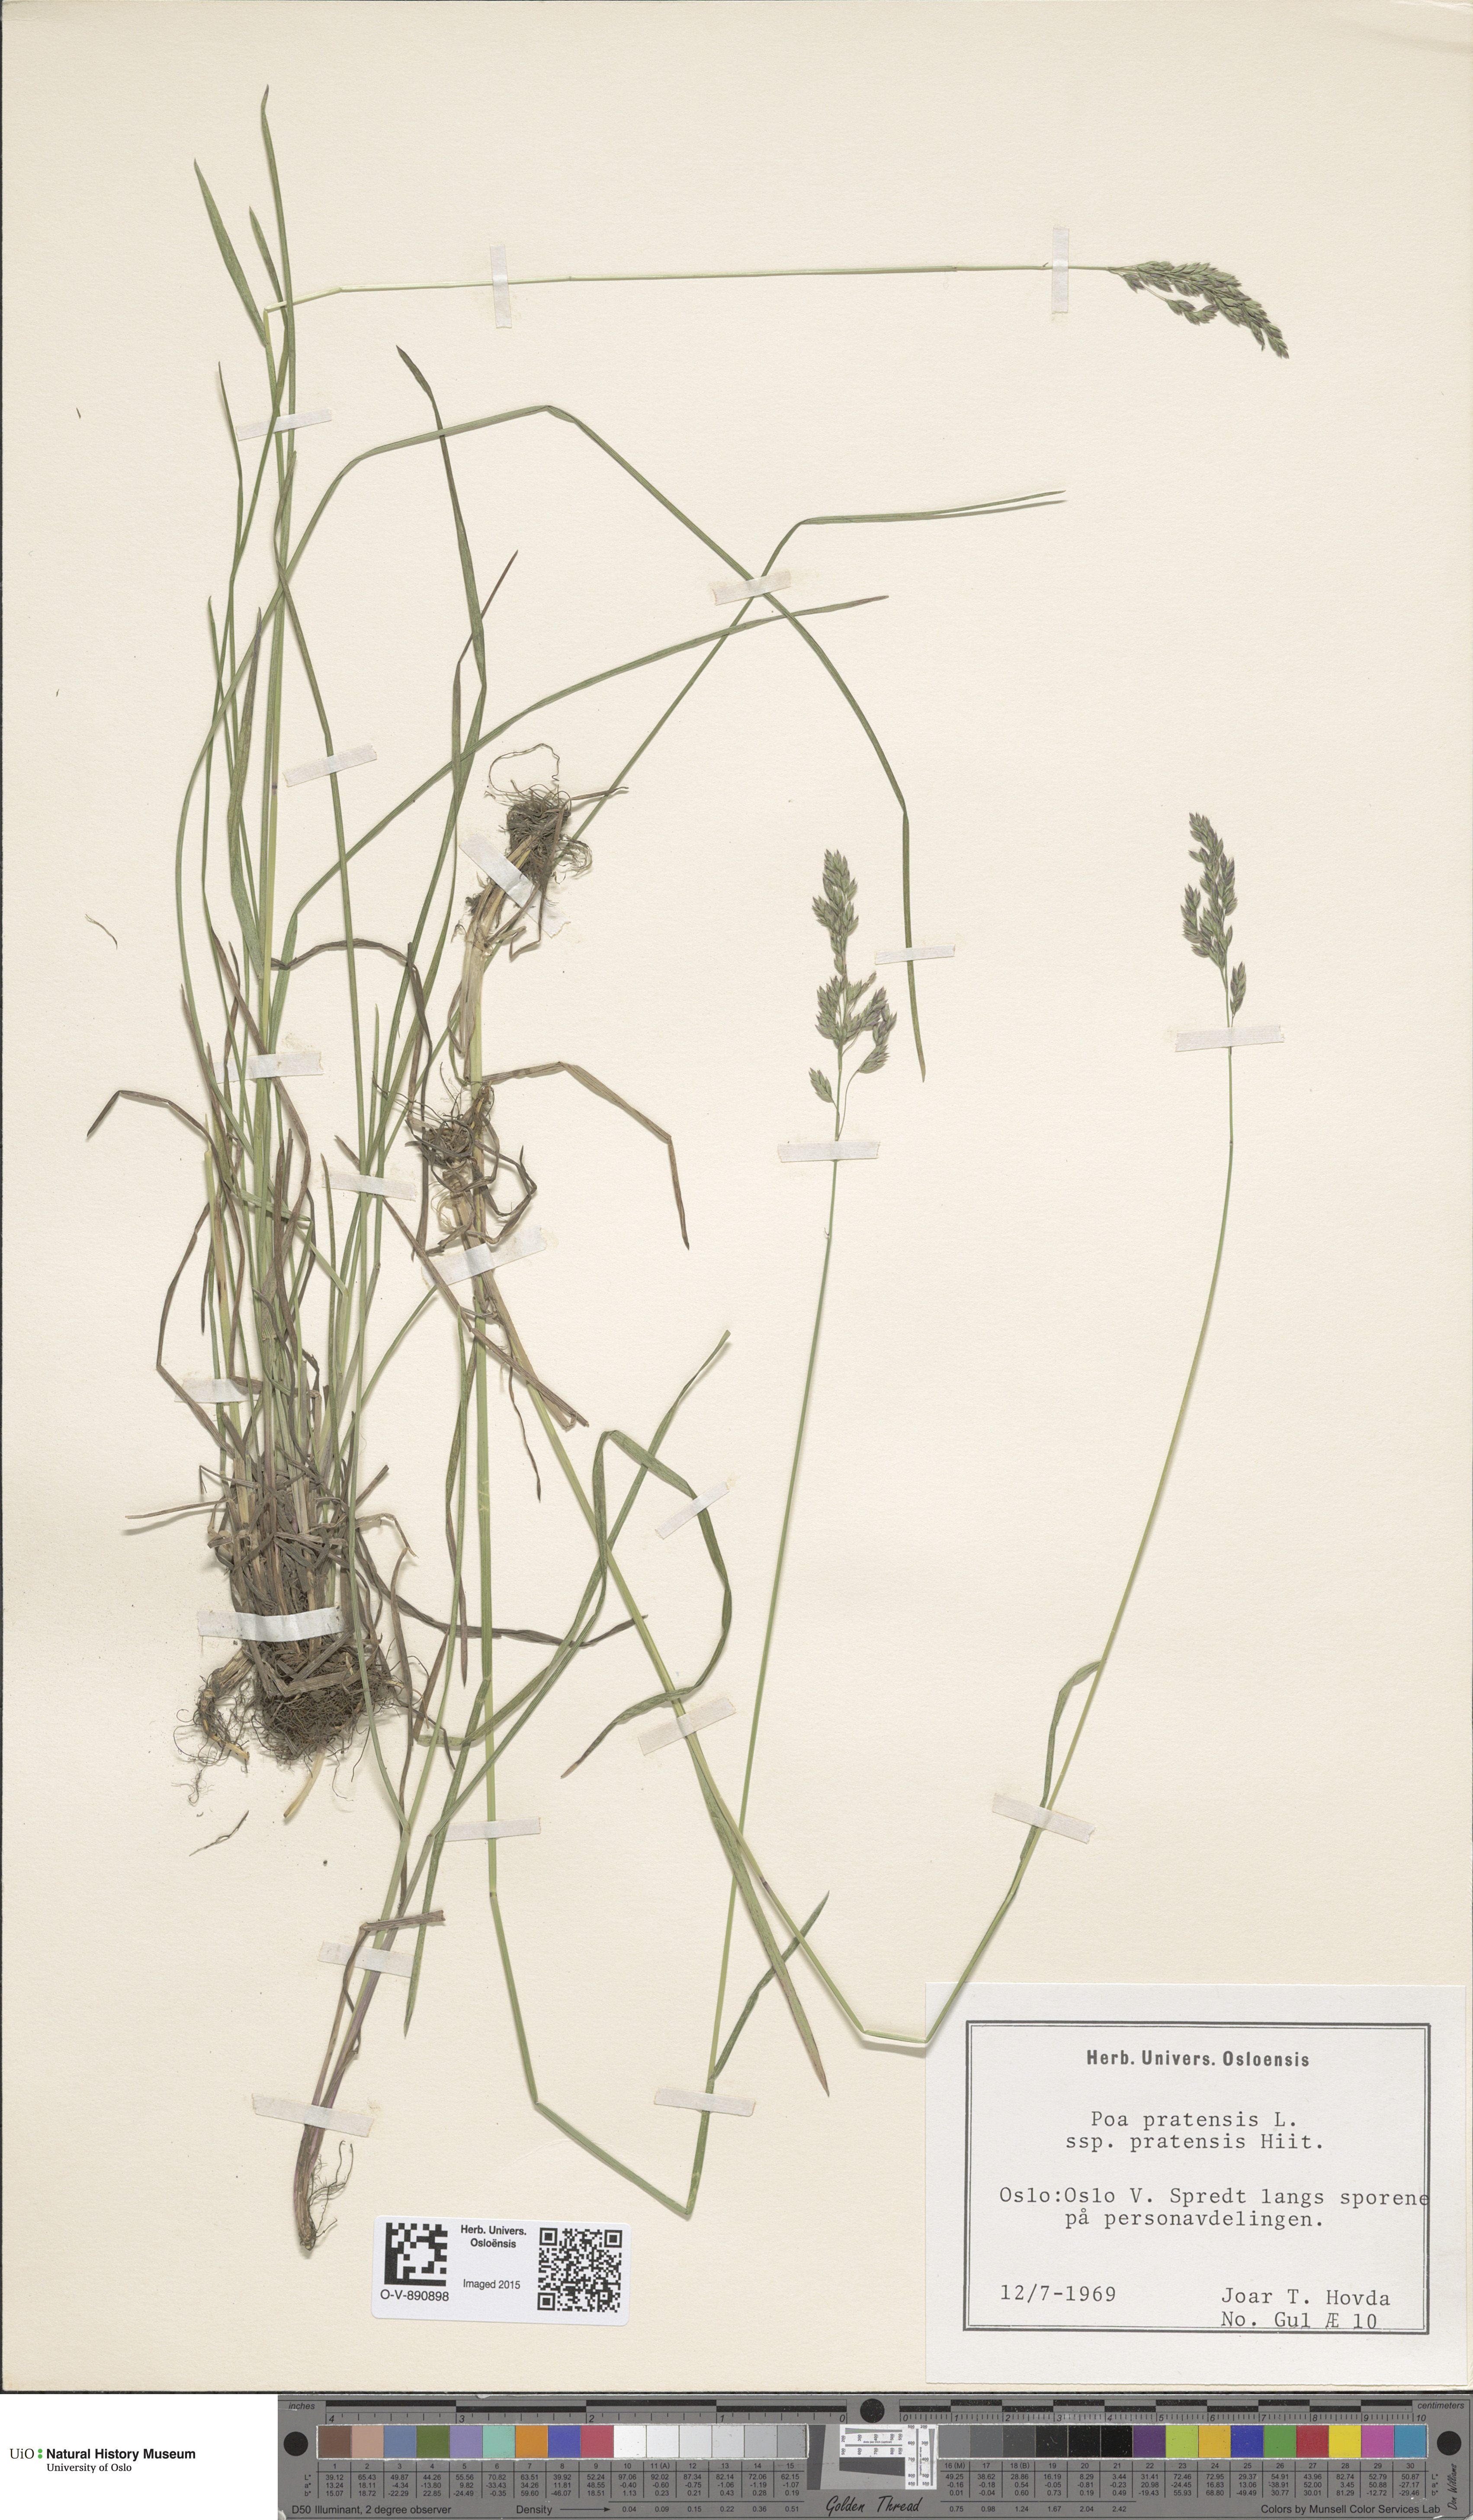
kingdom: Plantae
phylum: Tracheophyta
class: Liliopsida
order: Poales
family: Poaceae
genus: Poa
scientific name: Poa pratensis
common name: Kentucky bluegrass
